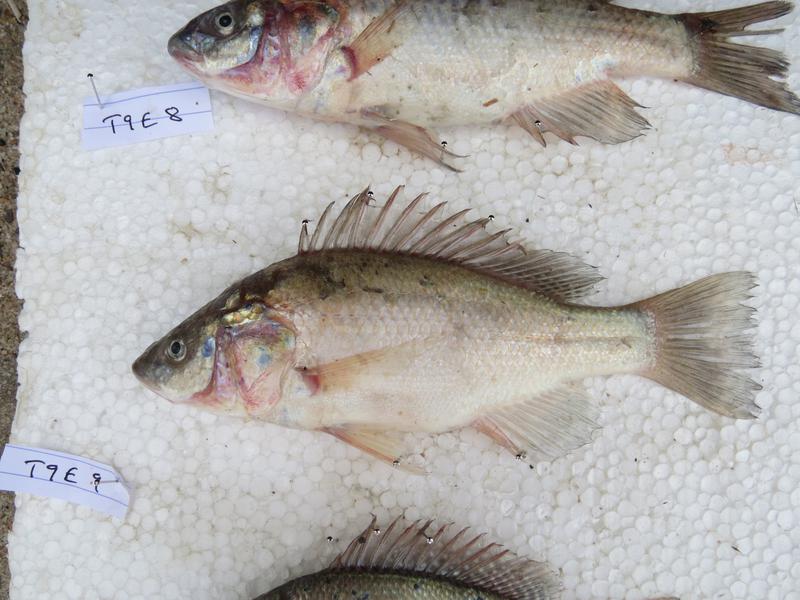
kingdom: Animalia
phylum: Chordata
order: Perciformes
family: Cichlidae
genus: Oreochromis
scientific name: Oreochromis amphimelas
